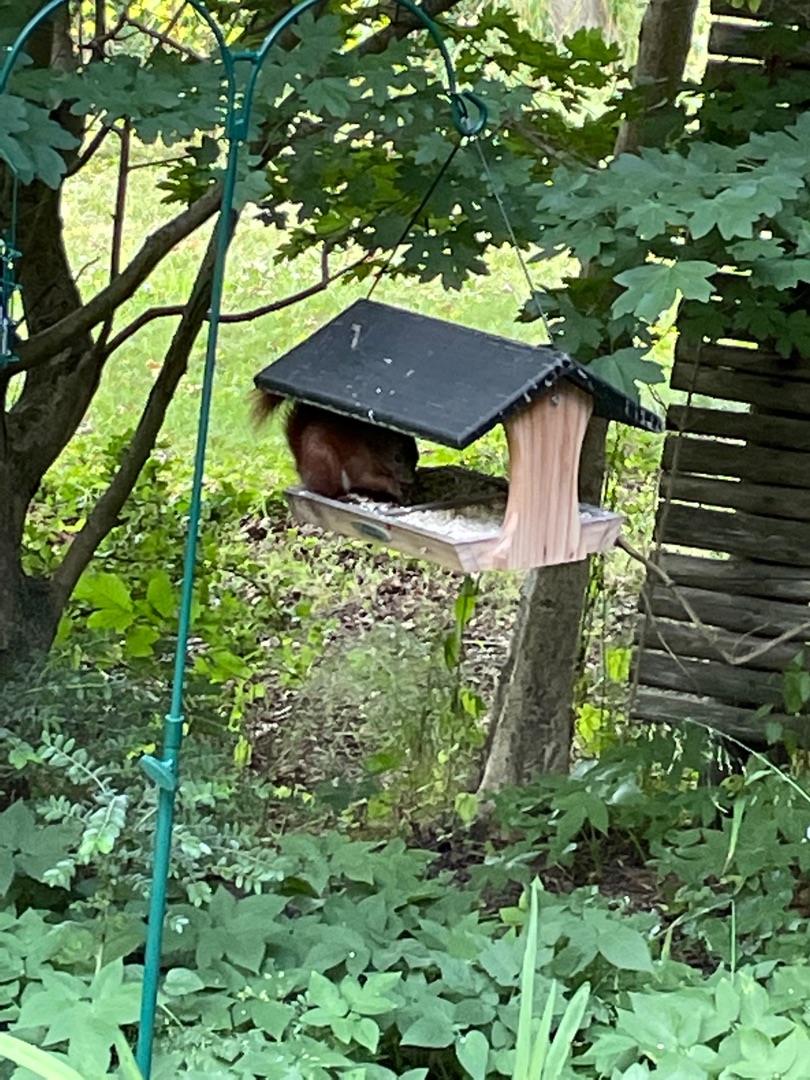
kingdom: Animalia
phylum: Chordata
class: Mammalia
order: Rodentia
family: Sciuridae
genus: Sciurus
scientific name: Sciurus vulgaris
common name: Egern
